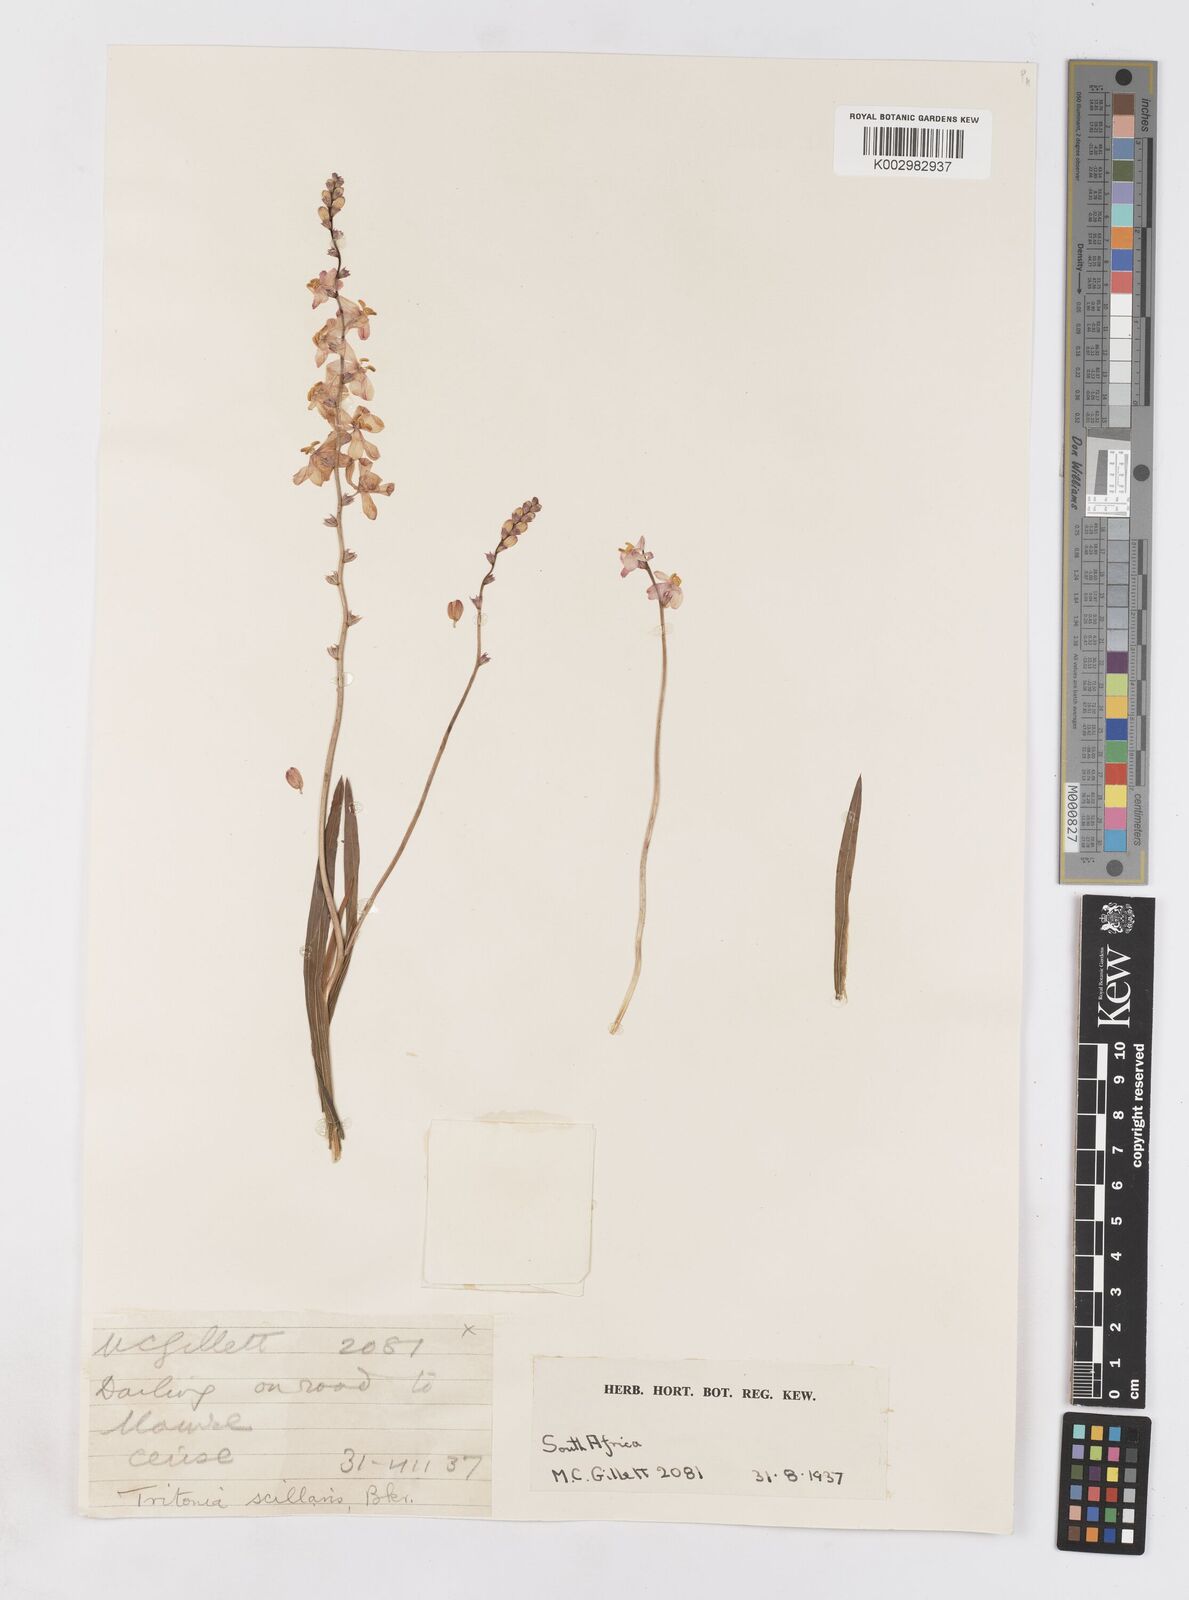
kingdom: Plantae
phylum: Tracheophyta
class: Liliopsida
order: Asparagales
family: Iridaceae
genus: Ixia
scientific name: Ixia scillaris
